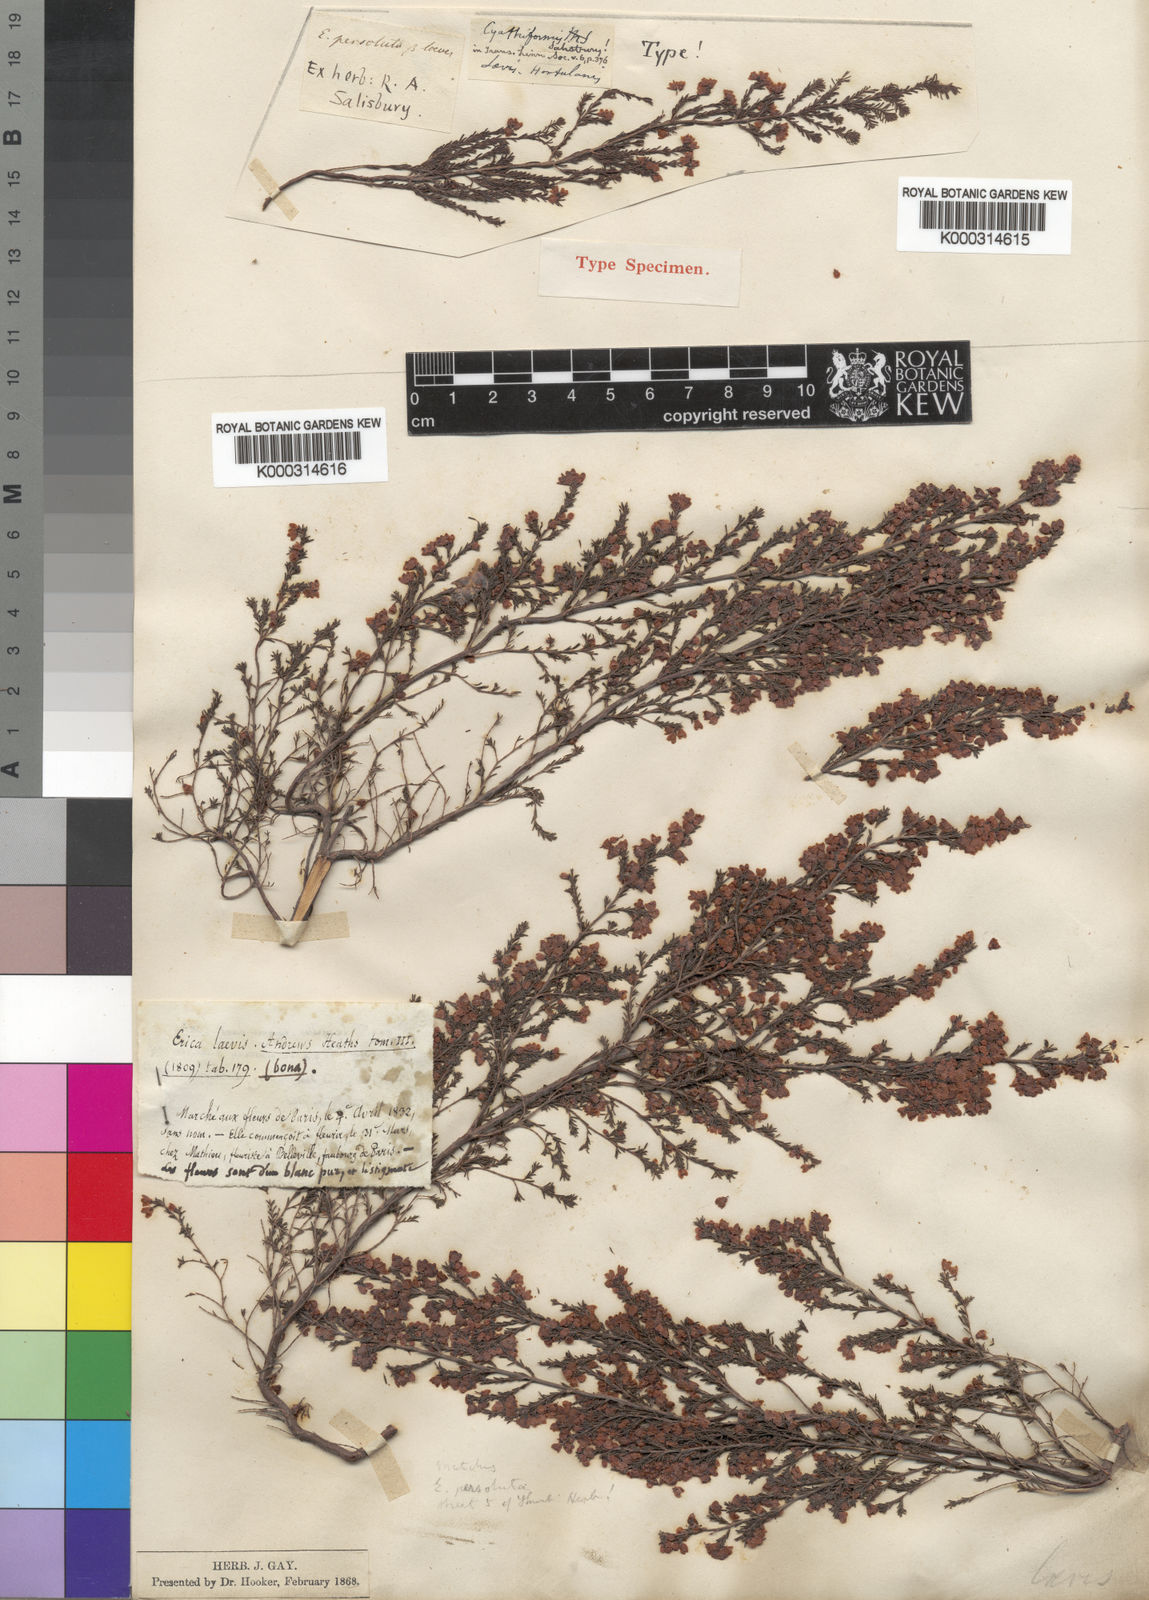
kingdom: Plantae
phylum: Tracheophyta
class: Magnoliopsida
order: Ericales
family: Ericaceae
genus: Erica
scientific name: Erica cyathiformis
